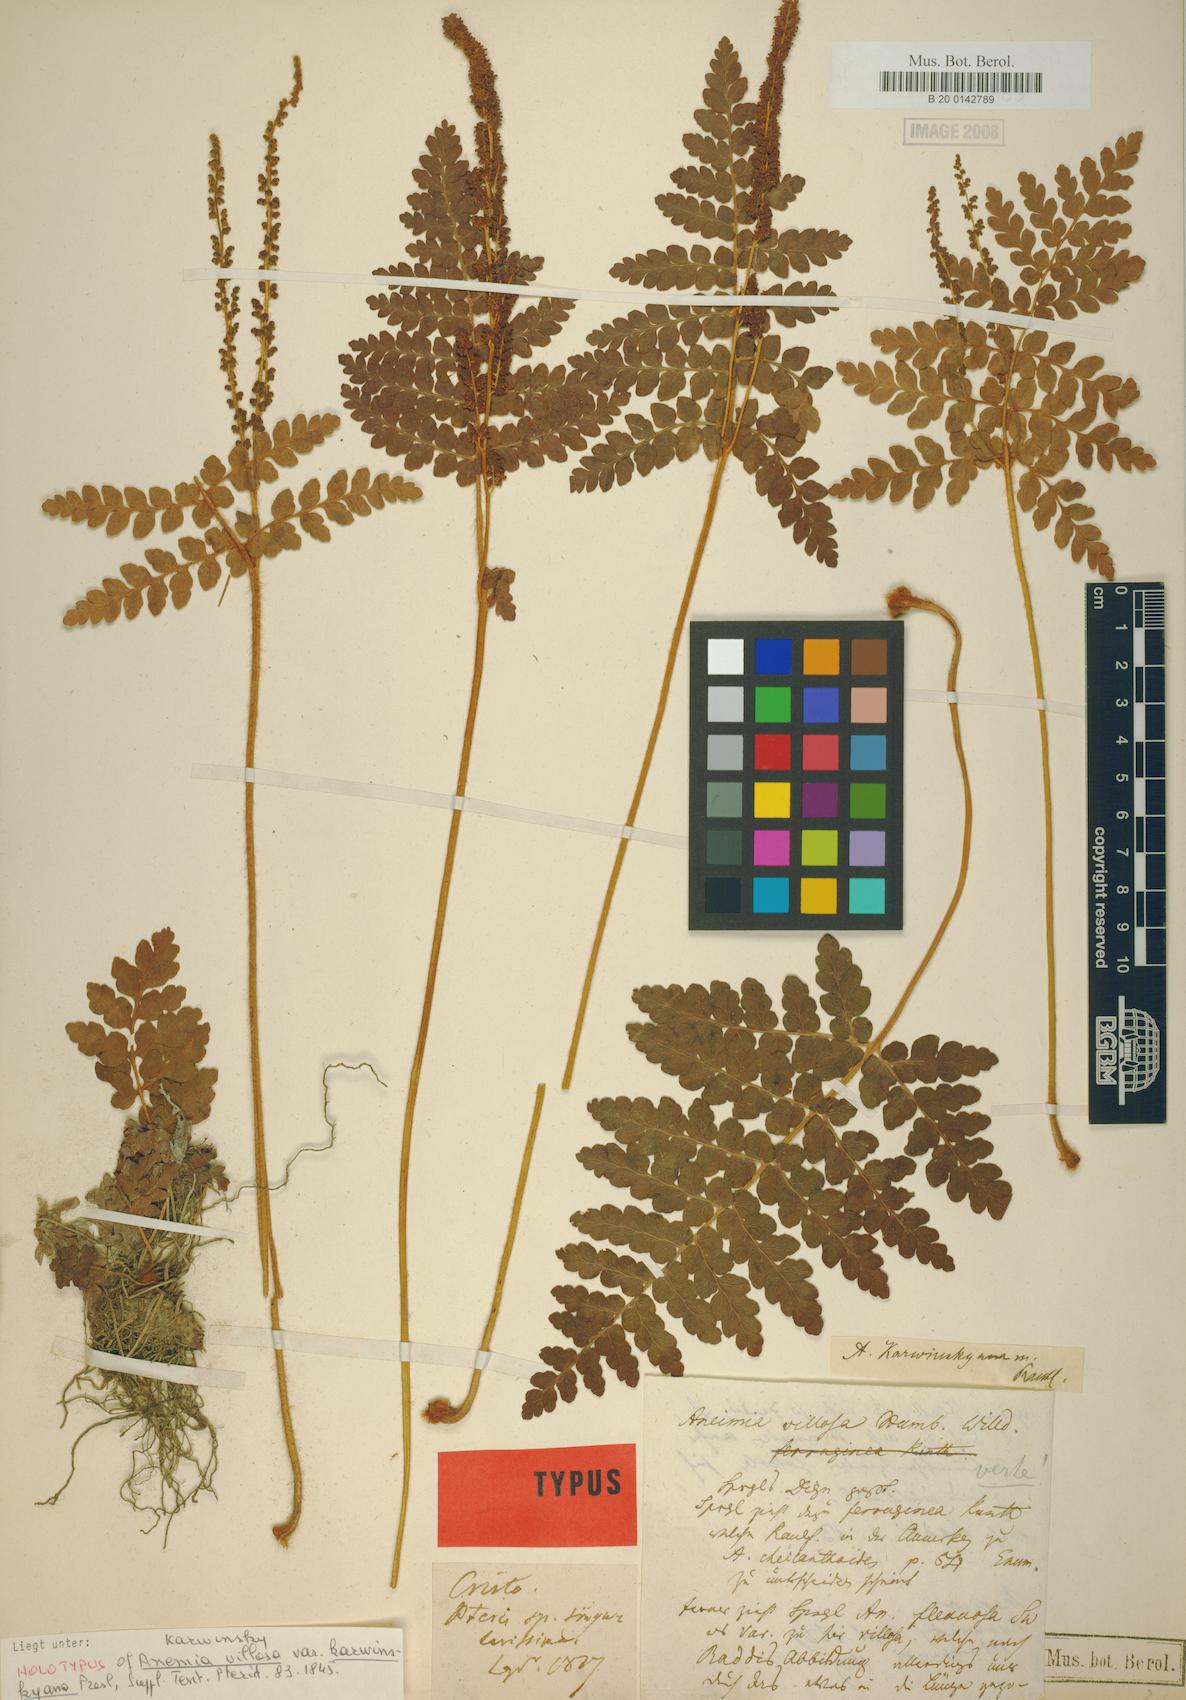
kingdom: Plantae
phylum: Tracheophyta
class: Polypodiopsida
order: Schizaeales
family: Anemiaceae
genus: Anemia
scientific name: Anemia karwinskyana
